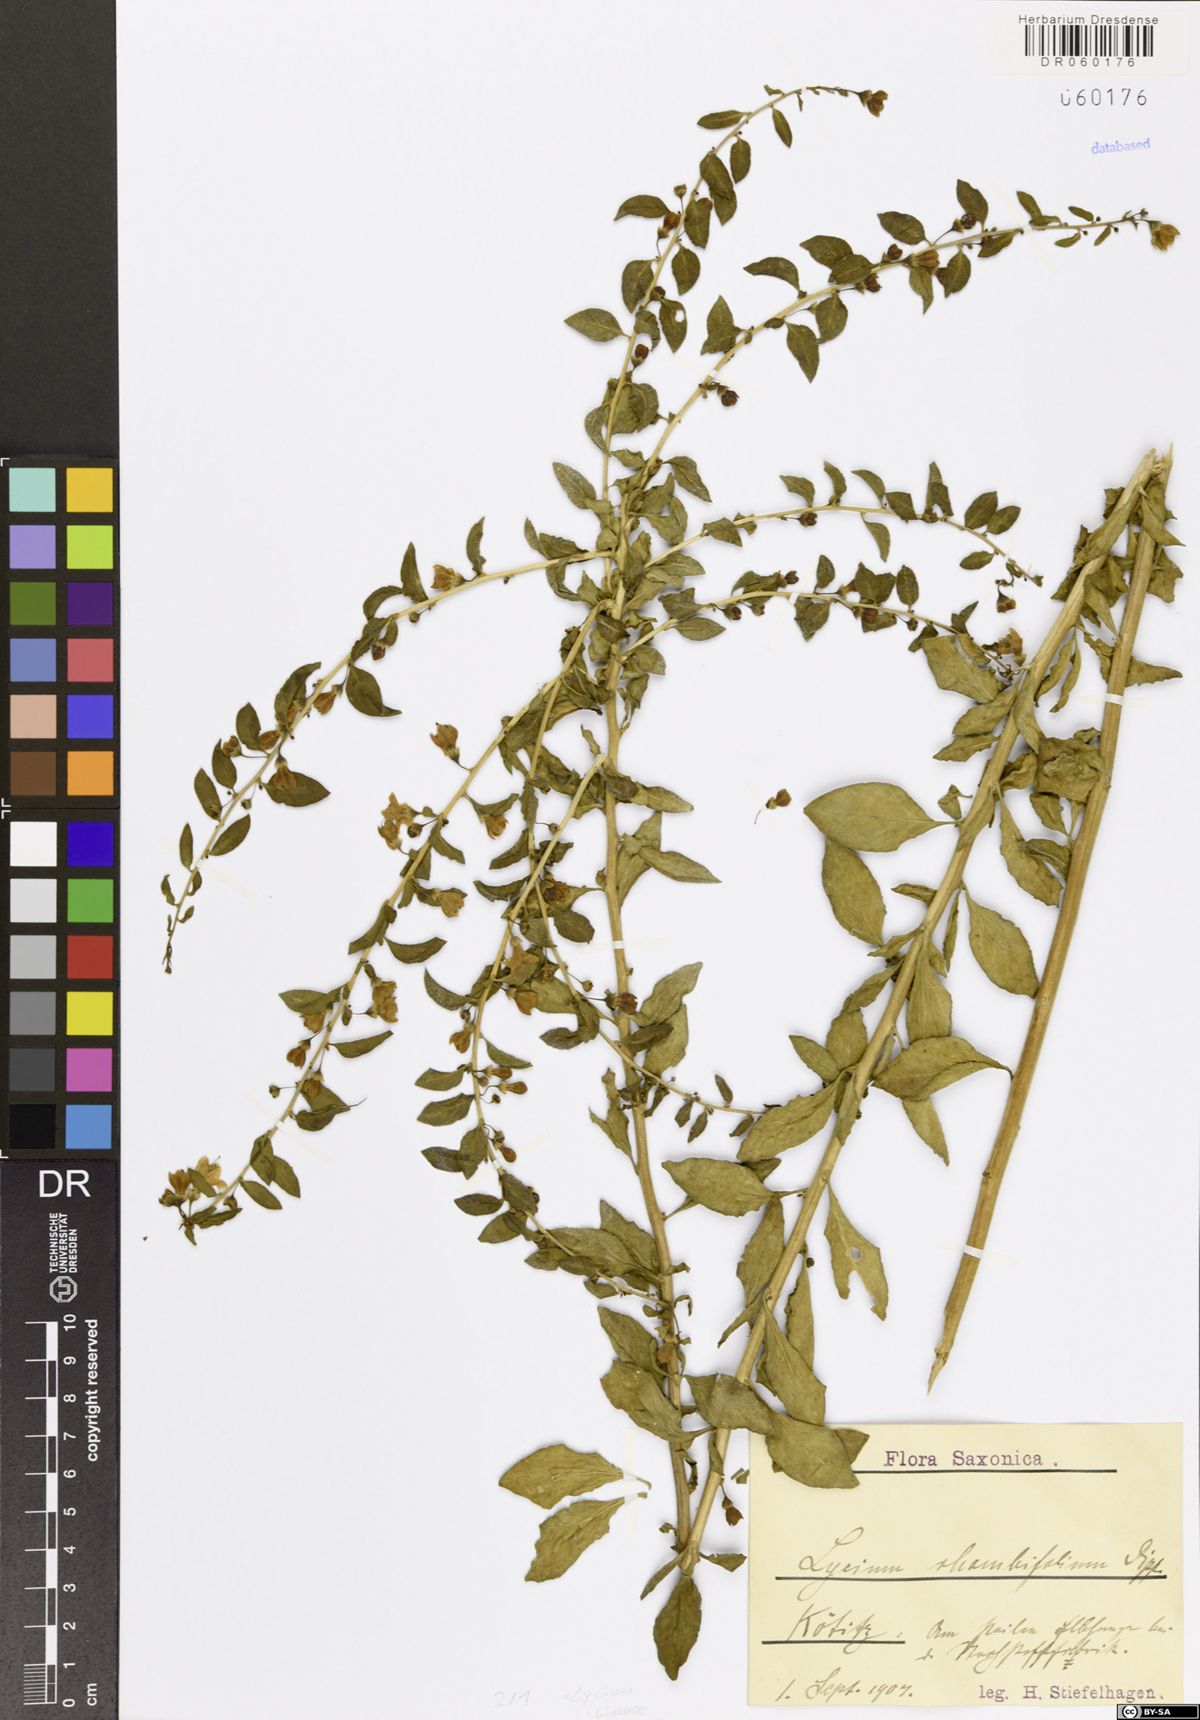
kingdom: Plantae
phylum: Tracheophyta
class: Magnoliopsida
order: Solanales
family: Solanaceae
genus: Lycium
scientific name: Lycium chinense
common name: Chinese teaplant
